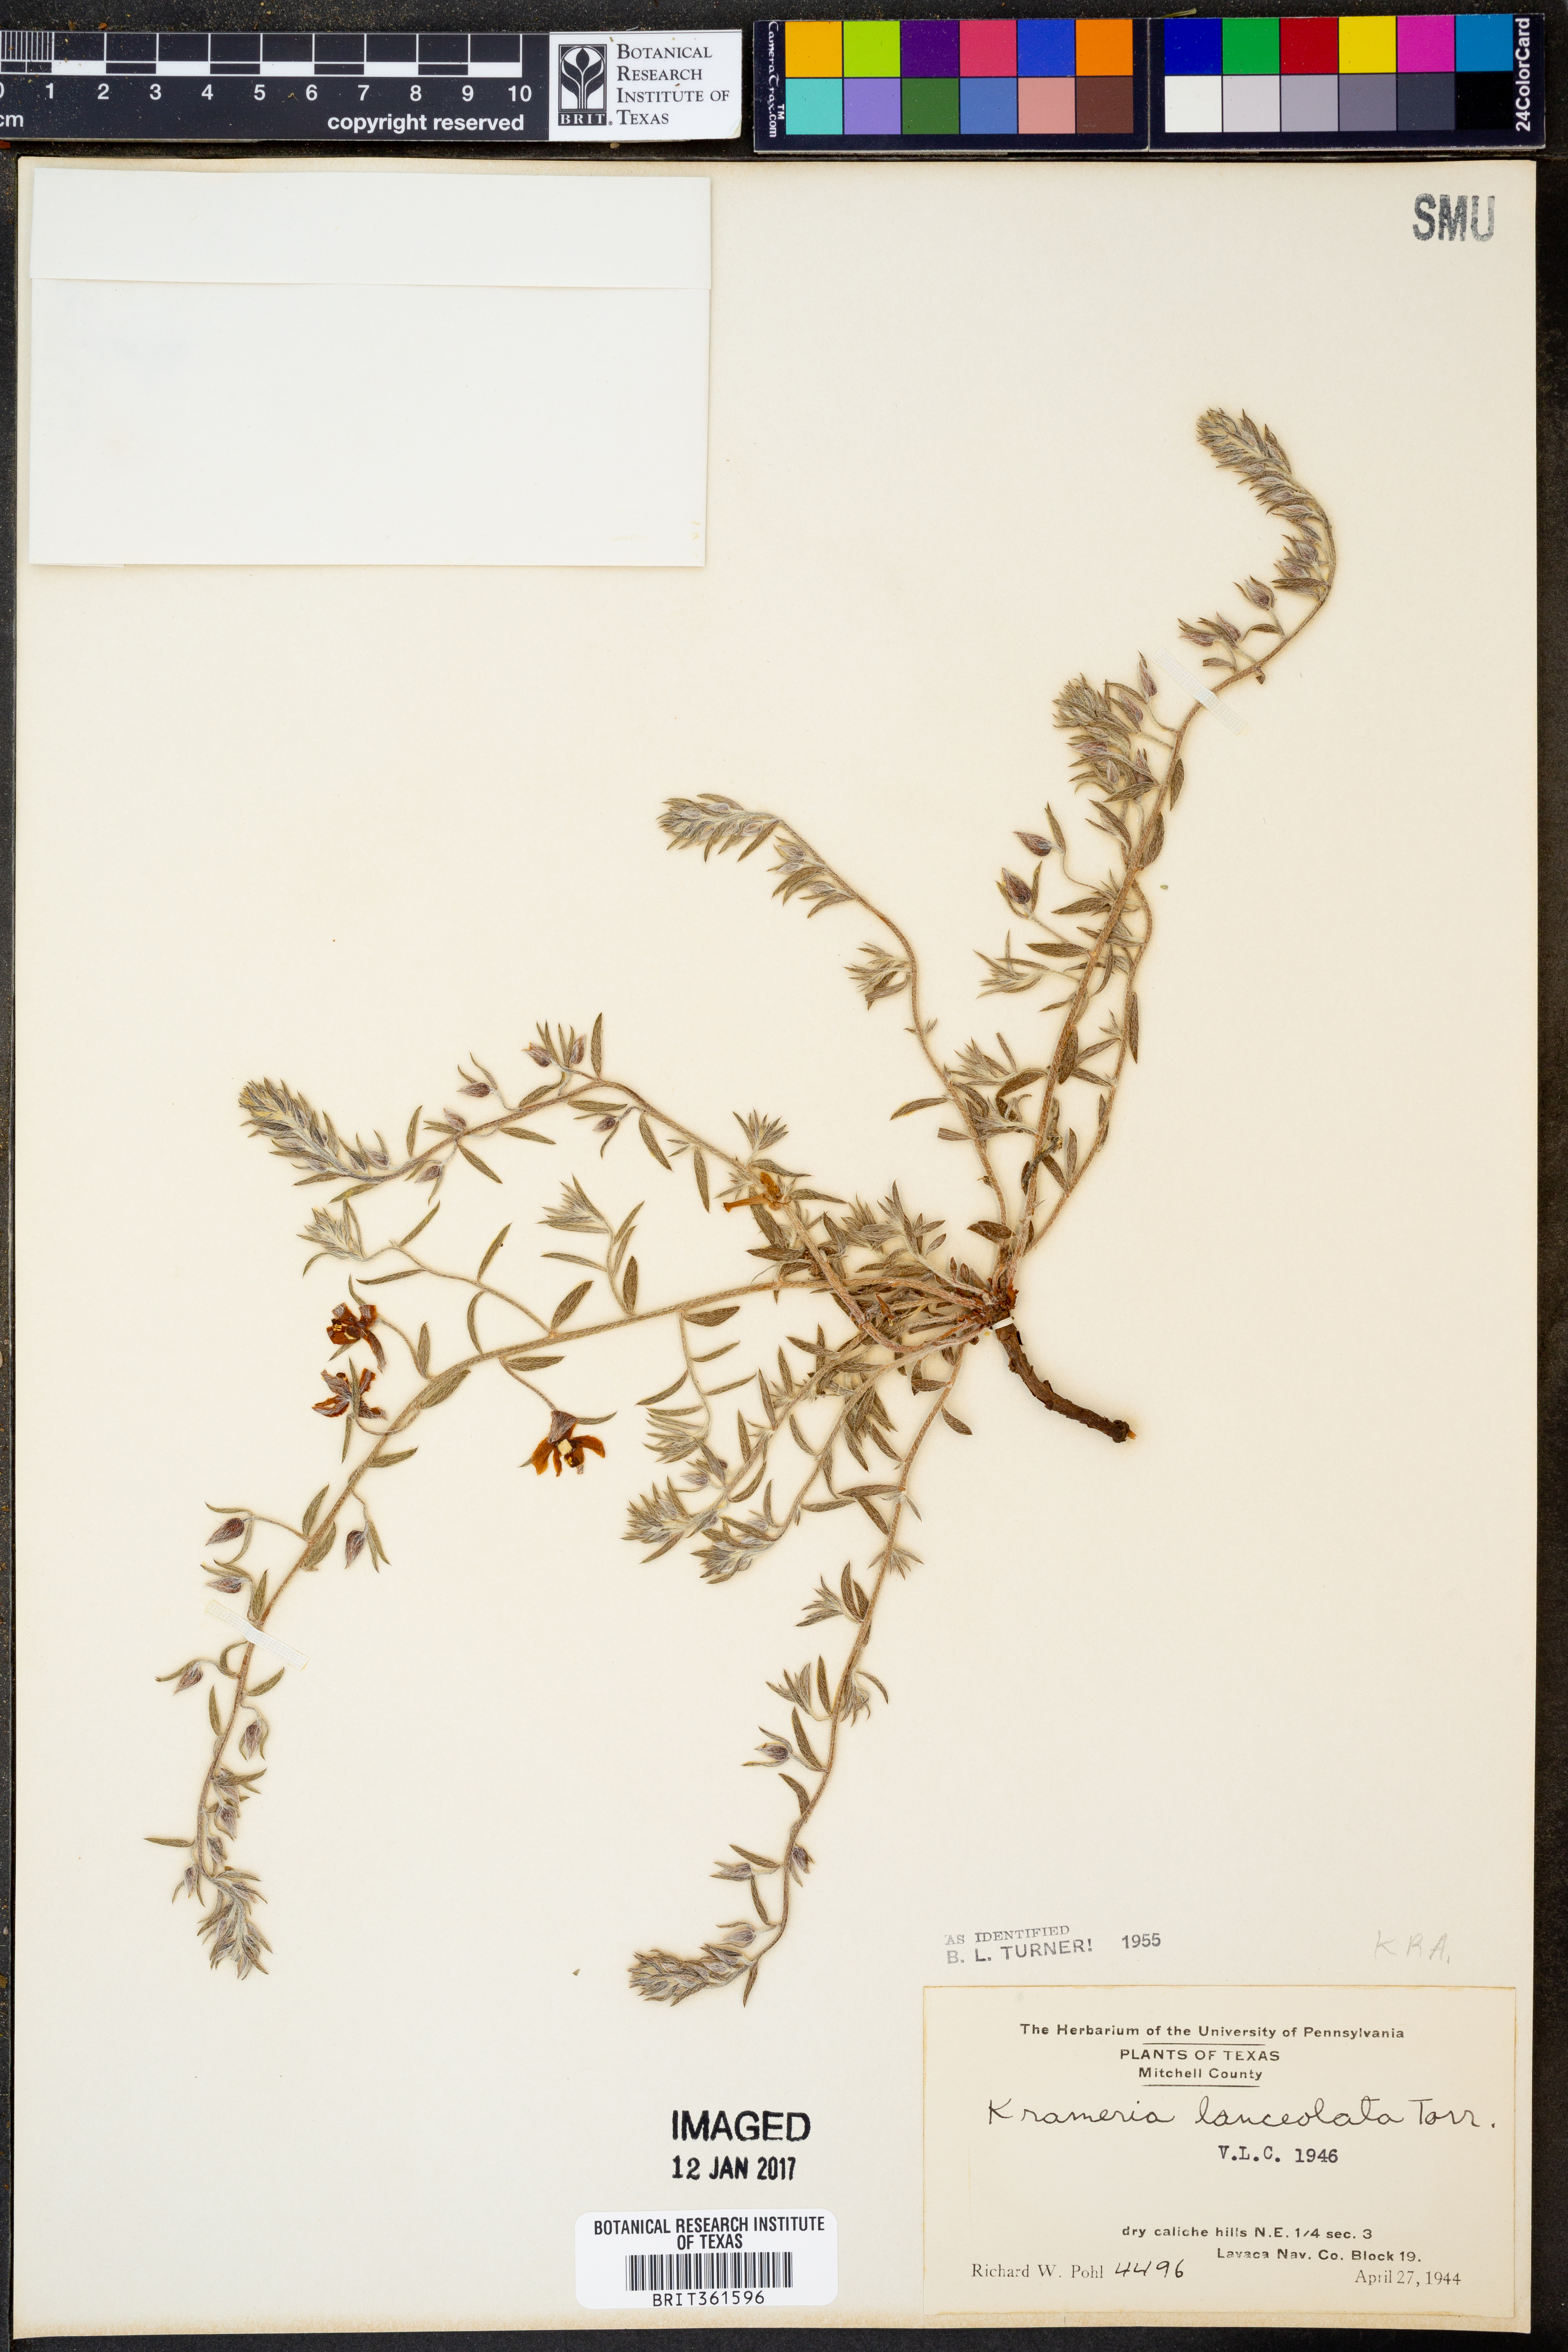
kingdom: Plantae
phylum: Tracheophyta
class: Magnoliopsida
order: Zygophyllales
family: Krameriaceae
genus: Krameria
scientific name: Krameria lanceolata
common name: Ratany
